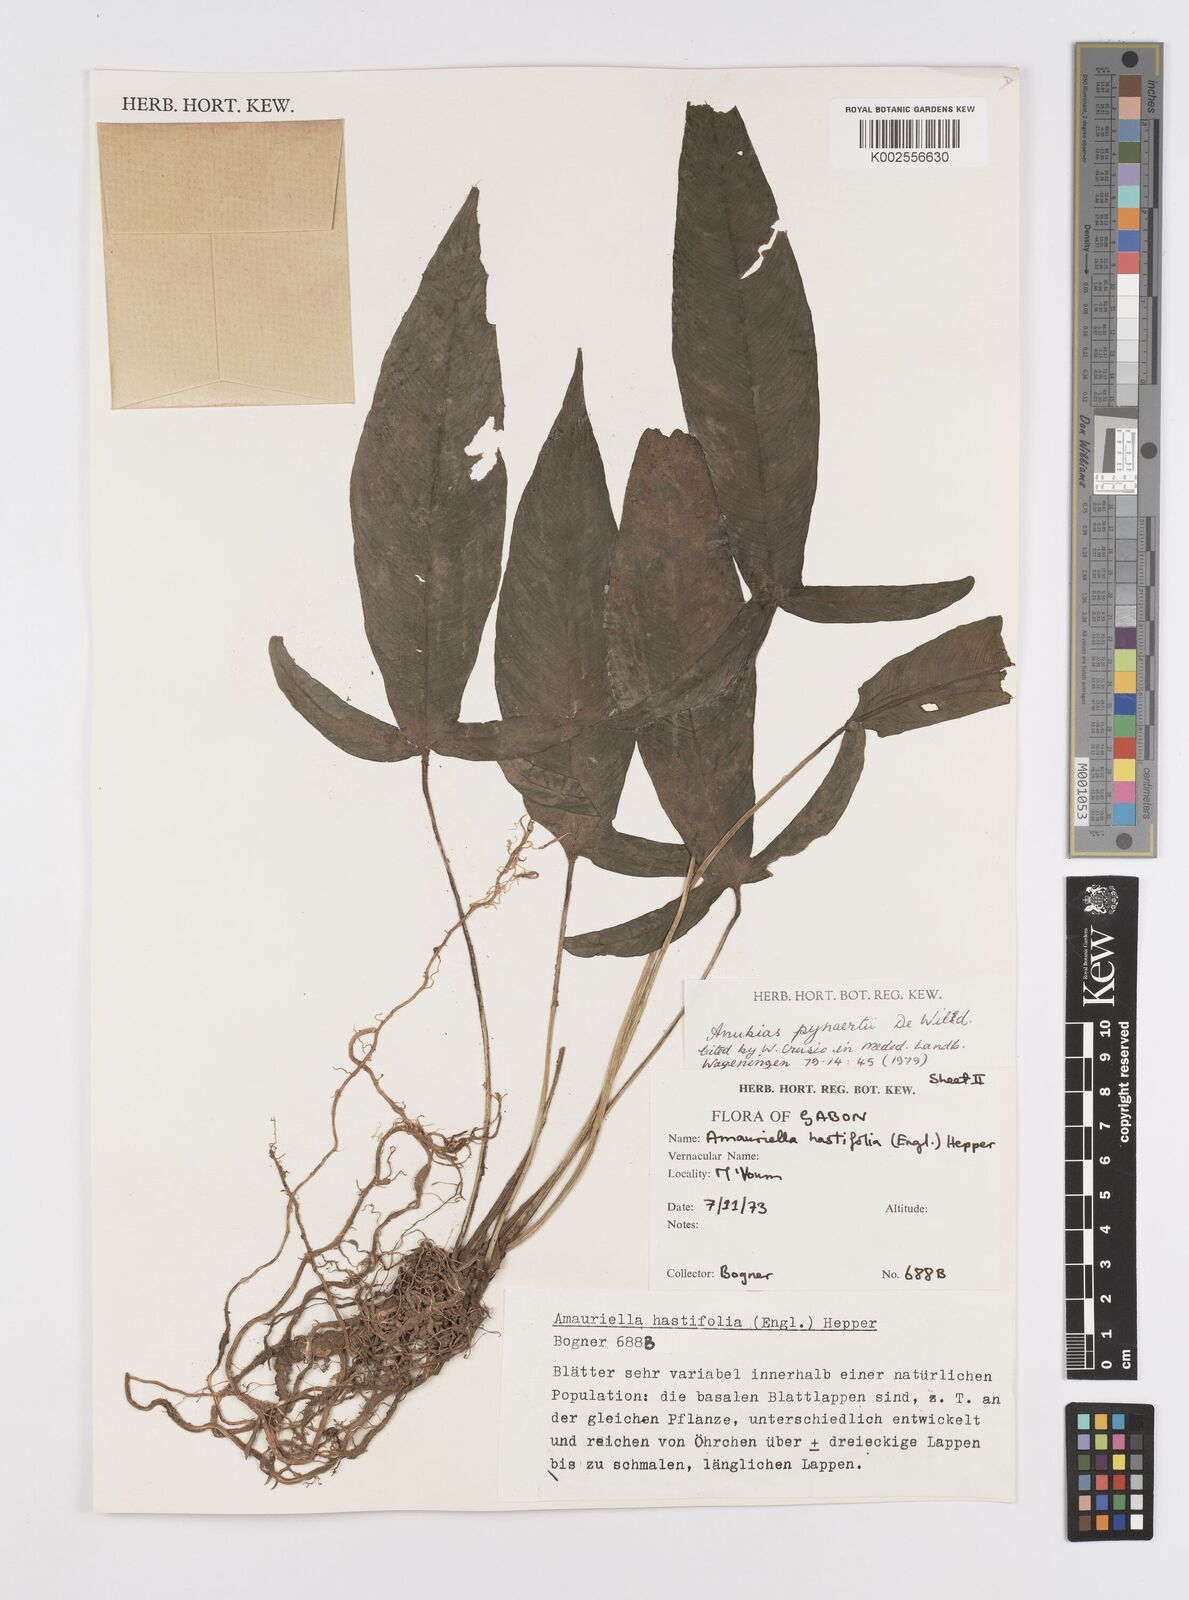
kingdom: Plantae
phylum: Tracheophyta
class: Liliopsida
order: Alismatales
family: Araceae
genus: Anubias
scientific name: Anubias pynaertii
